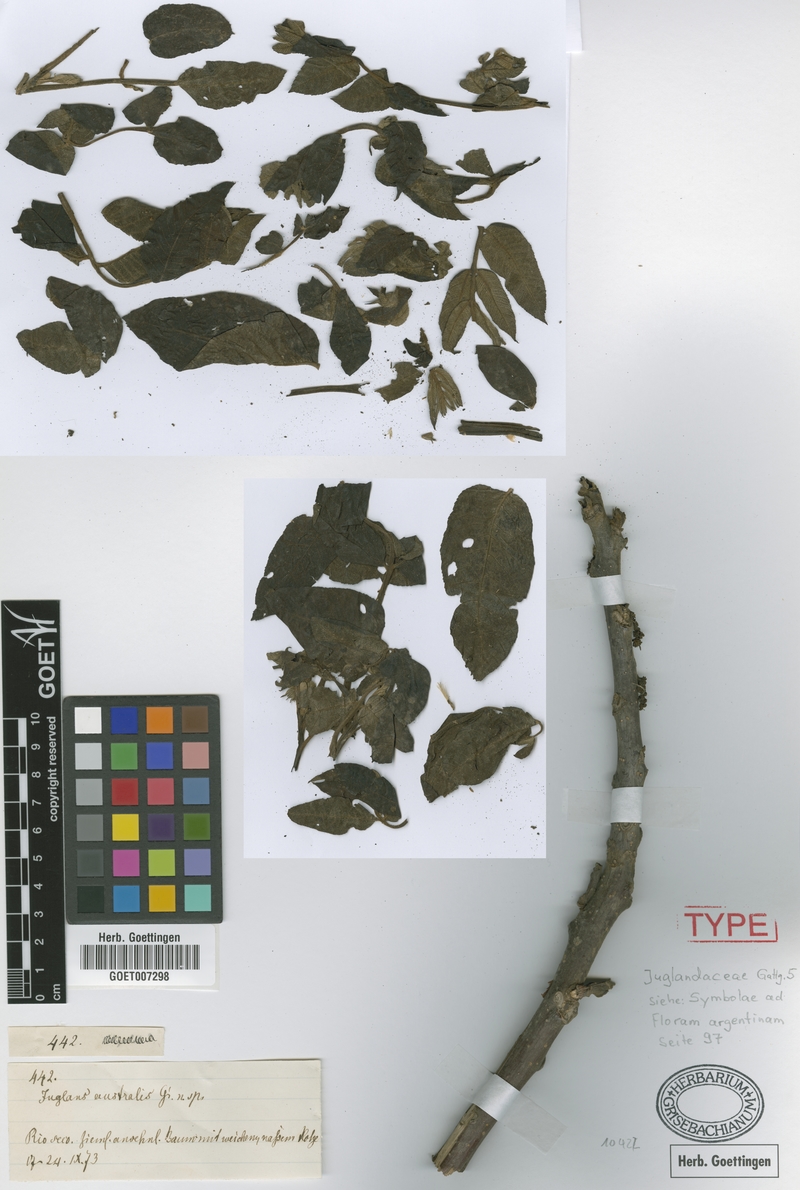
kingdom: Plantae
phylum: Tracheophyta
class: Magnoliopsida
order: Fagales
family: Juglandaceae
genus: Juglans
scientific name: Juglans australis
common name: Argentine walnut
